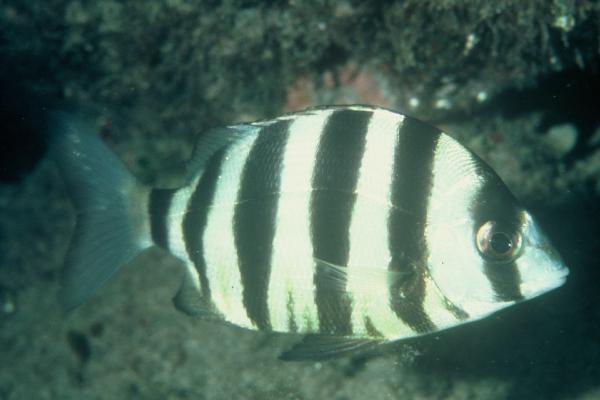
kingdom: Animalia
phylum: Chordata
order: Perciformes
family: Sparidae
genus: Diplodus
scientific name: Diplodus hottentotus
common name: Zebra
